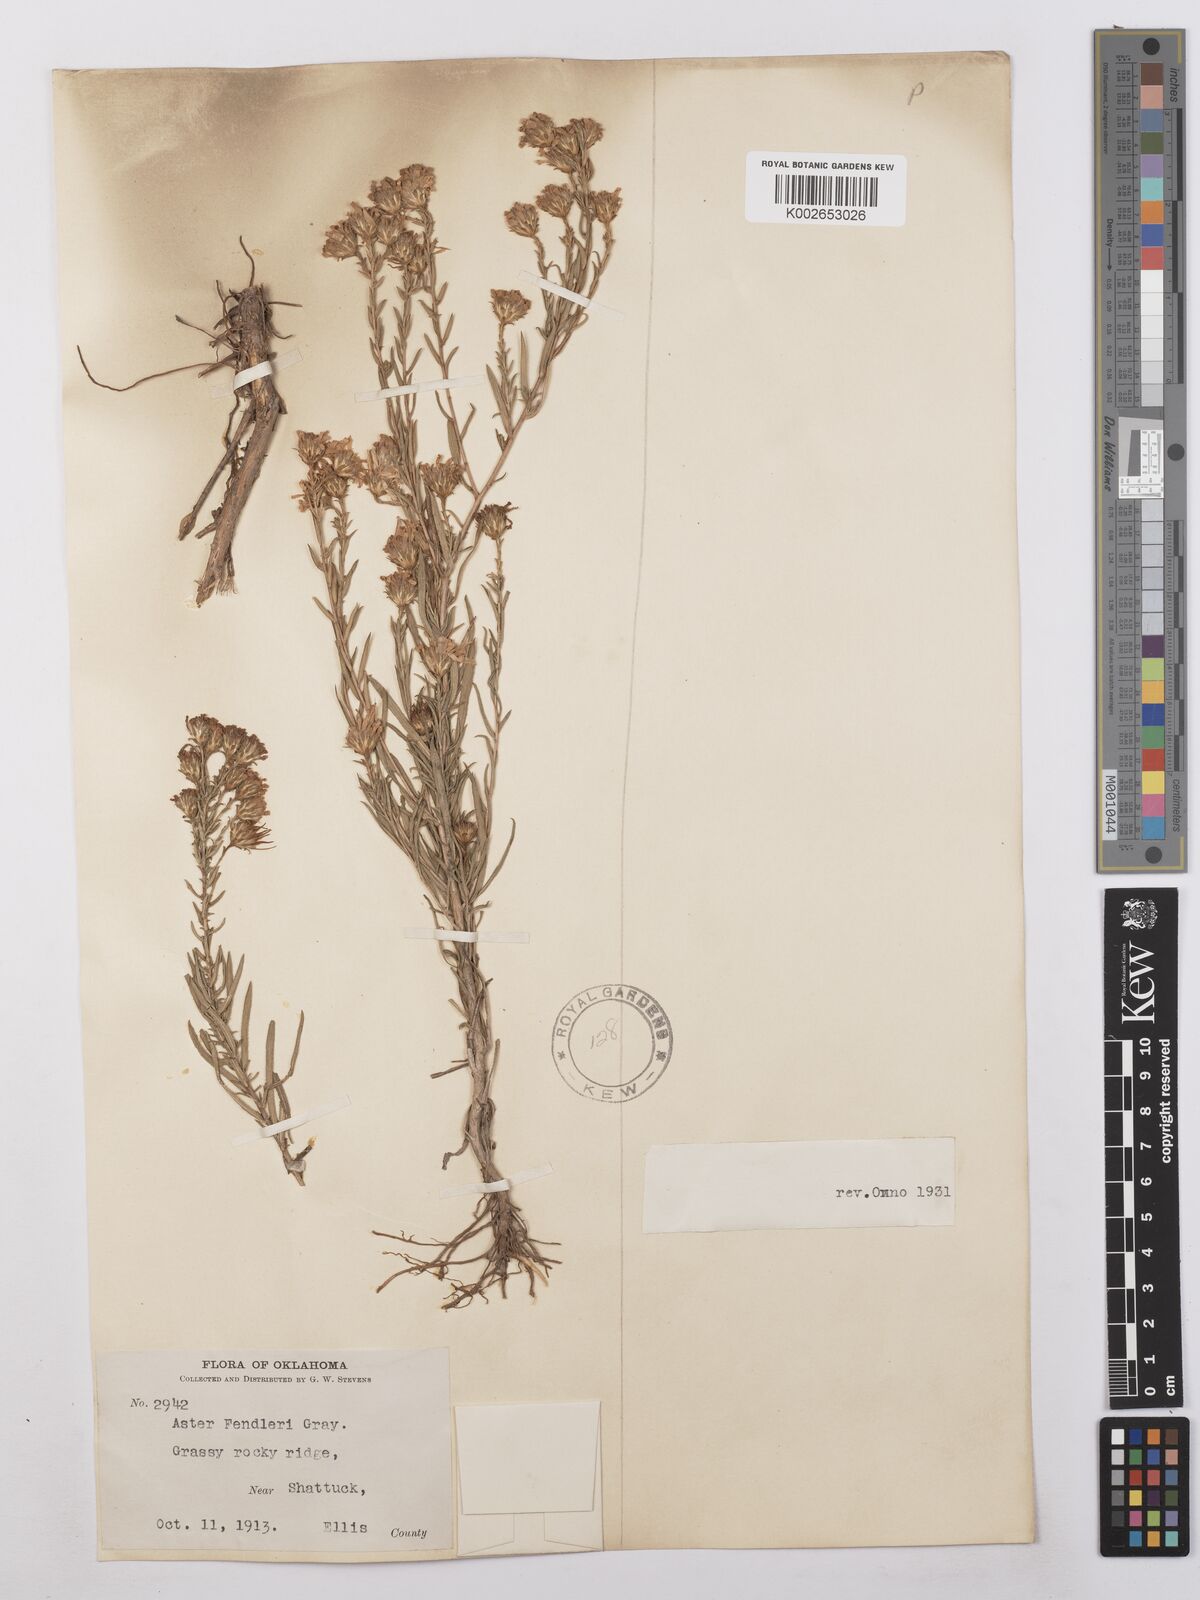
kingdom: Plantae
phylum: Tracheophyta
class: Magnoliopsida
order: Asterales
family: Asteraceae
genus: Symphyotrichum
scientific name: Symphyotrichum fendleri
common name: Fendler's aster
